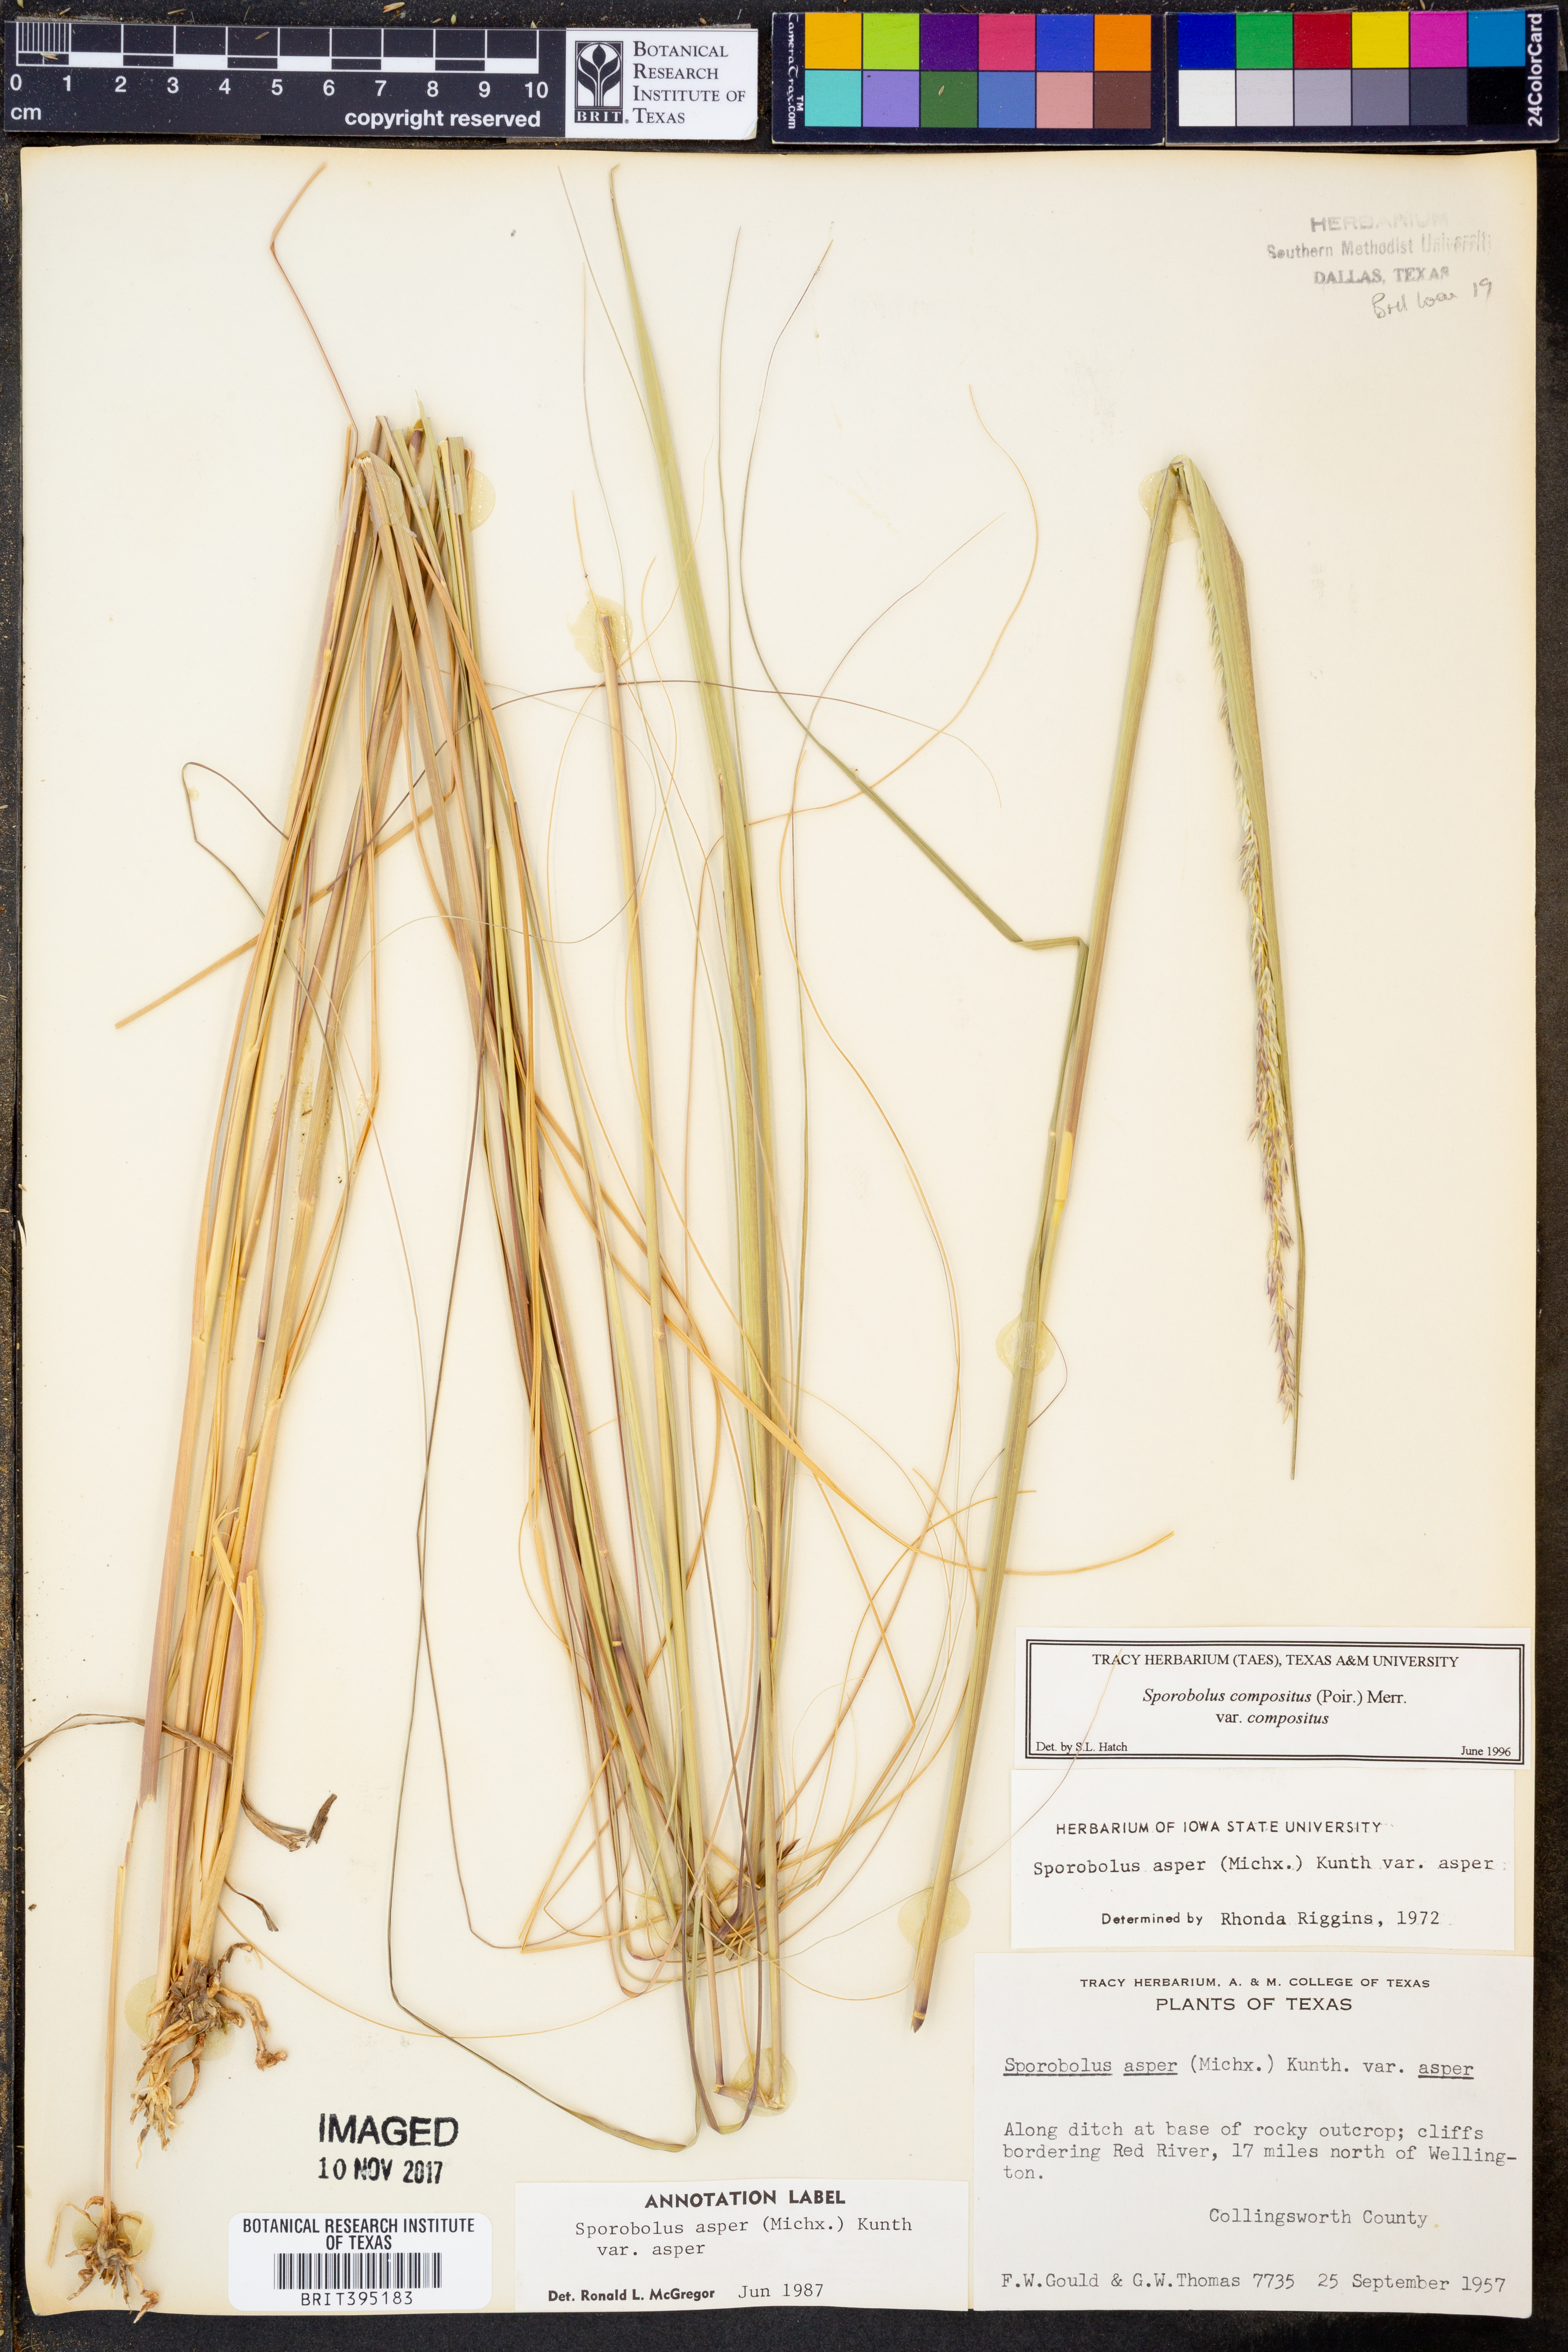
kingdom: Plantae
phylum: Tracheophyta
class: Liliopsida
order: Poales
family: Poaceae
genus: Sporobolus
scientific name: Sporobolus compositus
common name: Rough dropseed
